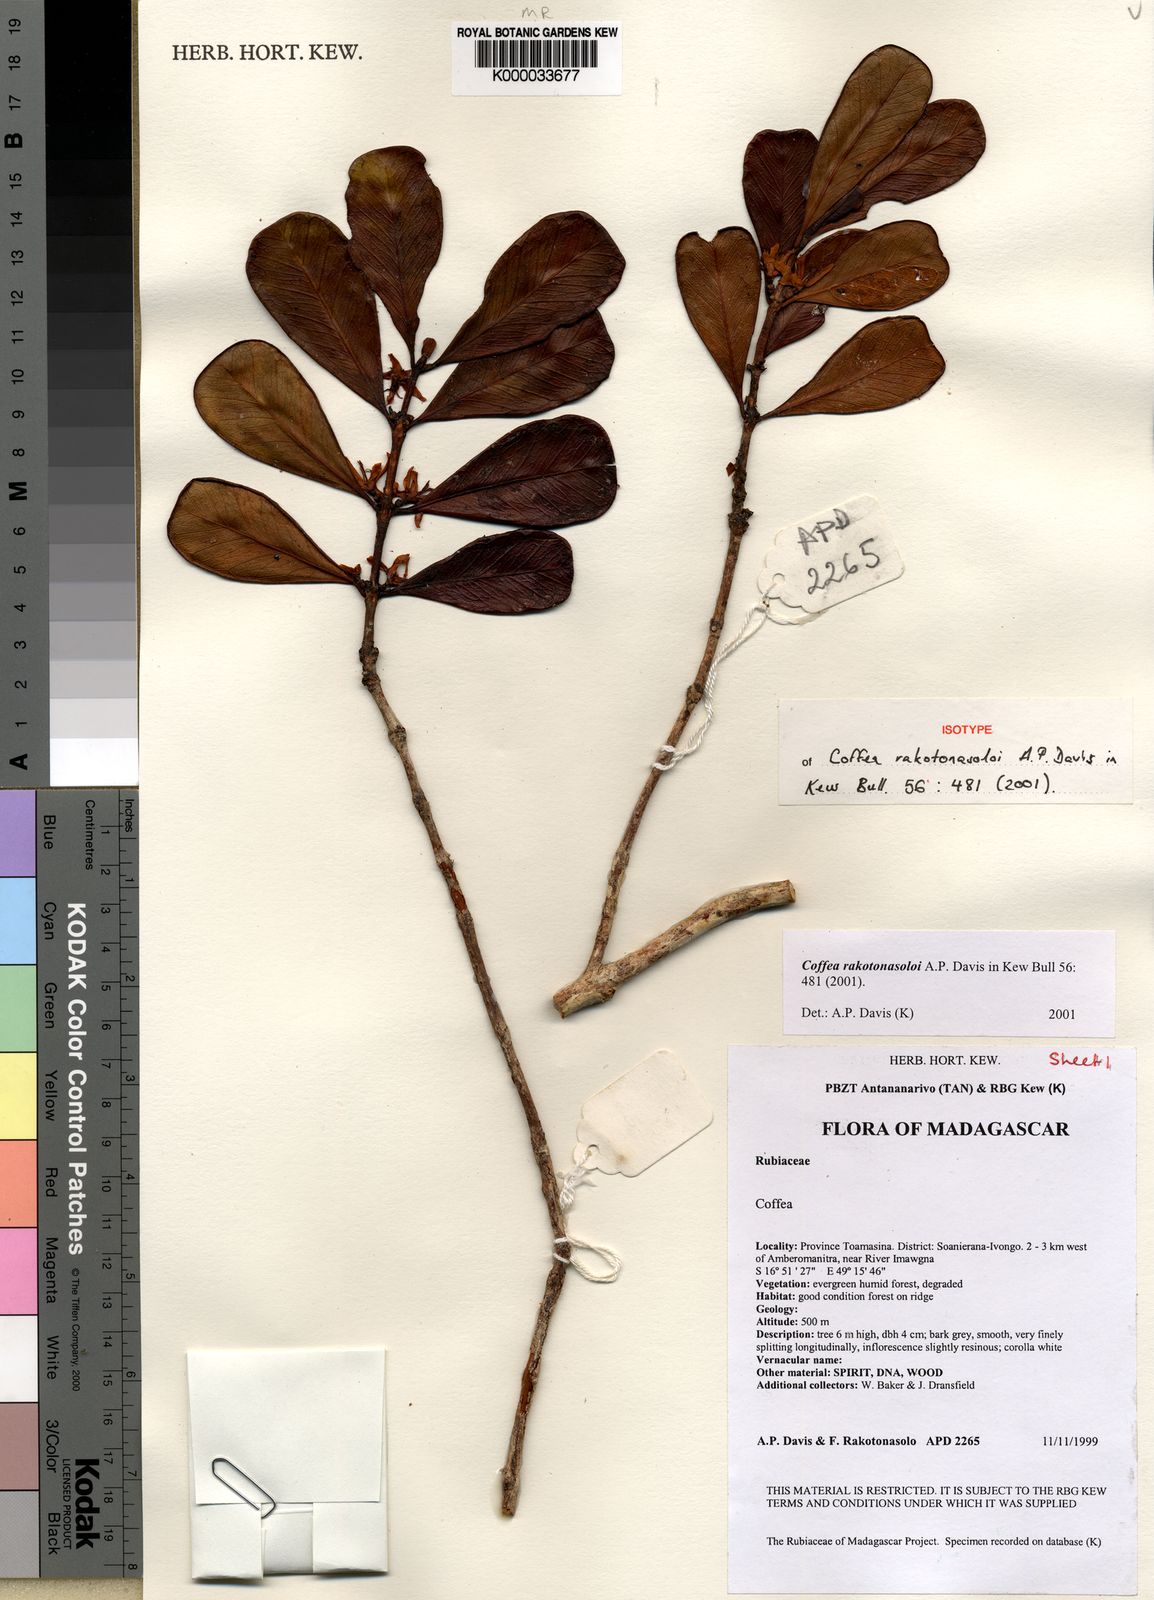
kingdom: Plantae
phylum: Tracheophyta
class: Magnoliopsida
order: Gentianales
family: Rubiaceae
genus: Coffea
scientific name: Coffea rakotonasoloi
